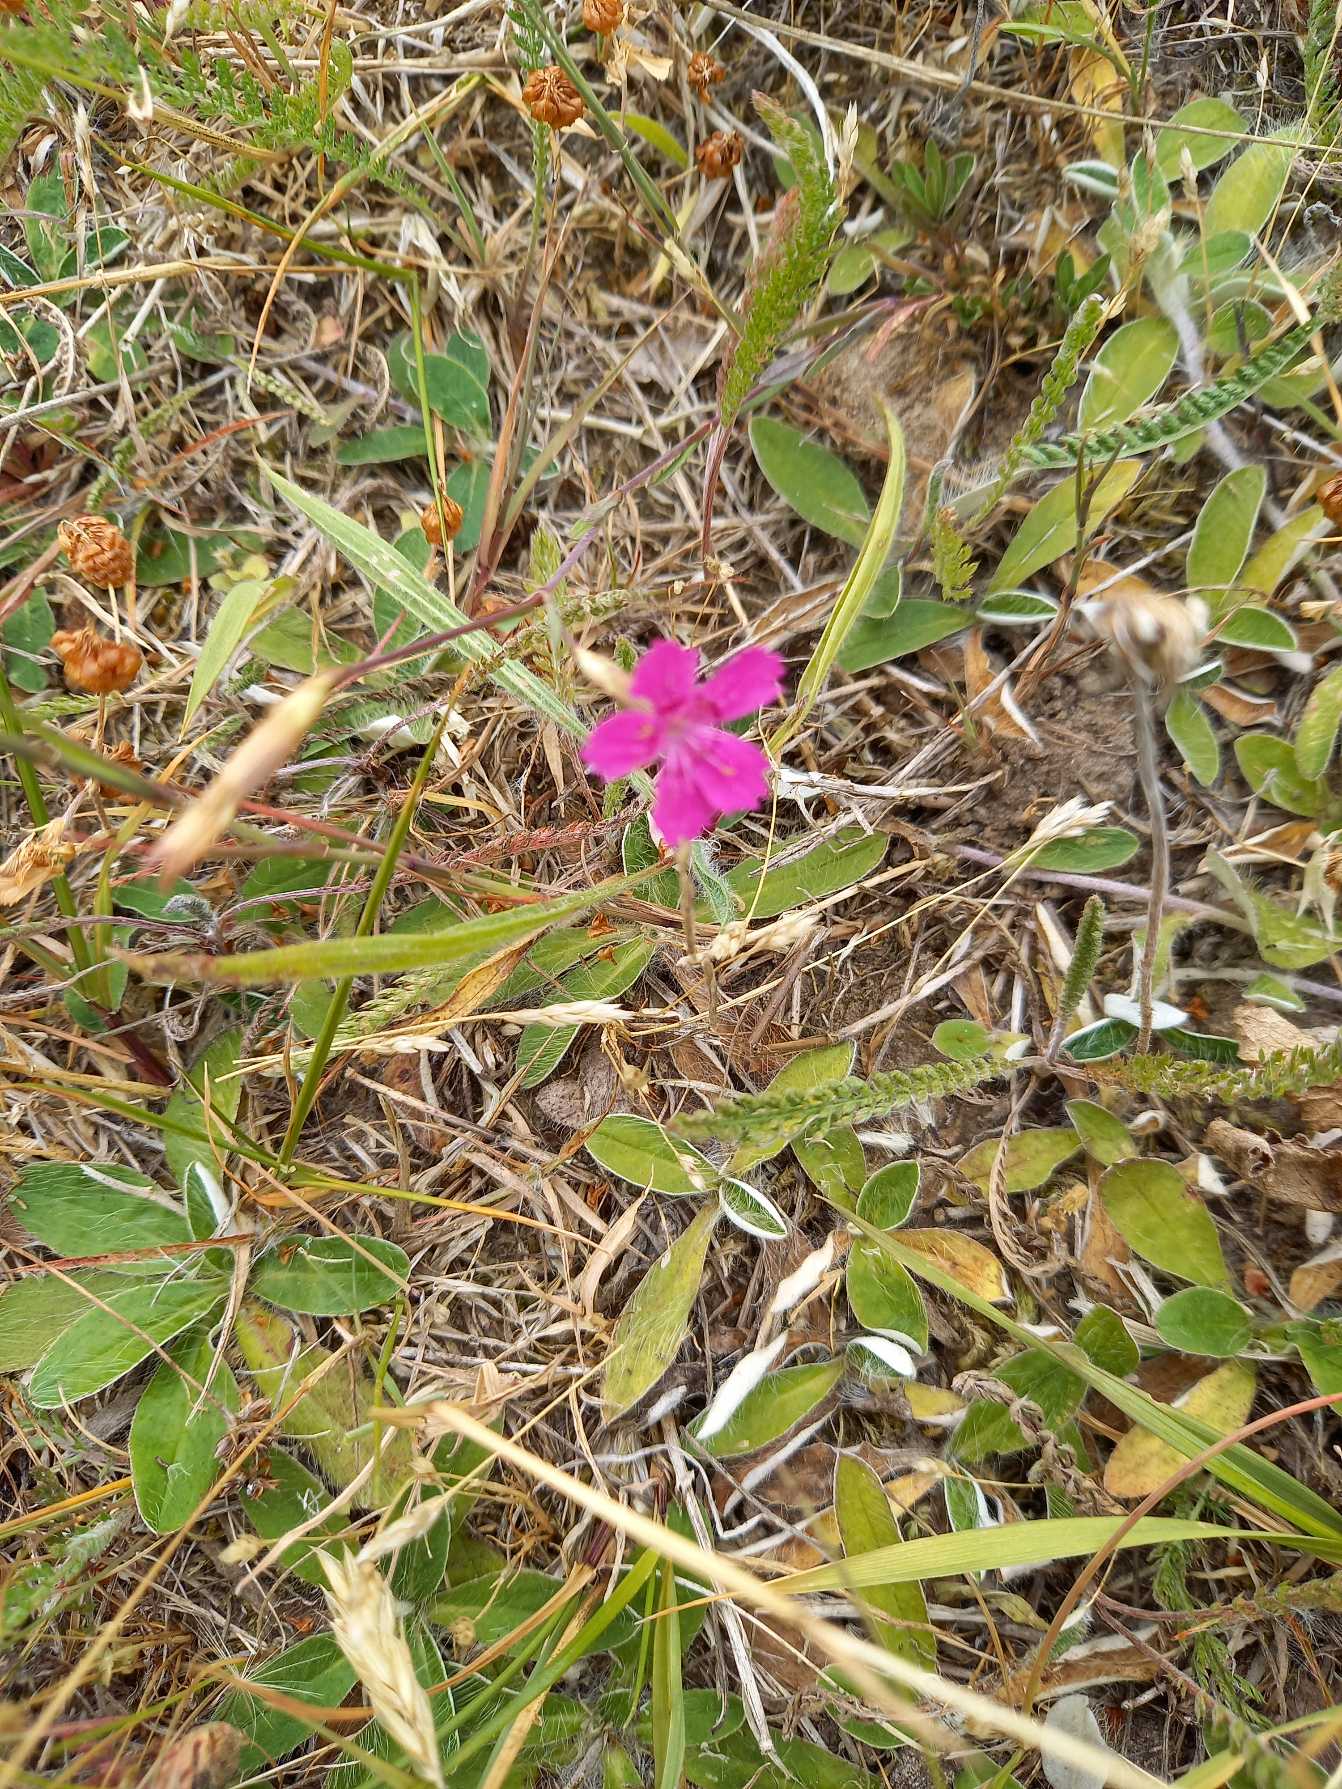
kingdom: Plantae
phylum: Tracheophyta
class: Magnoliopsida
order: Caryophyllales
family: Caryophyllaceae
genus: Dianthus
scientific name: Dianthus deltoides
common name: Bakke-nellike
